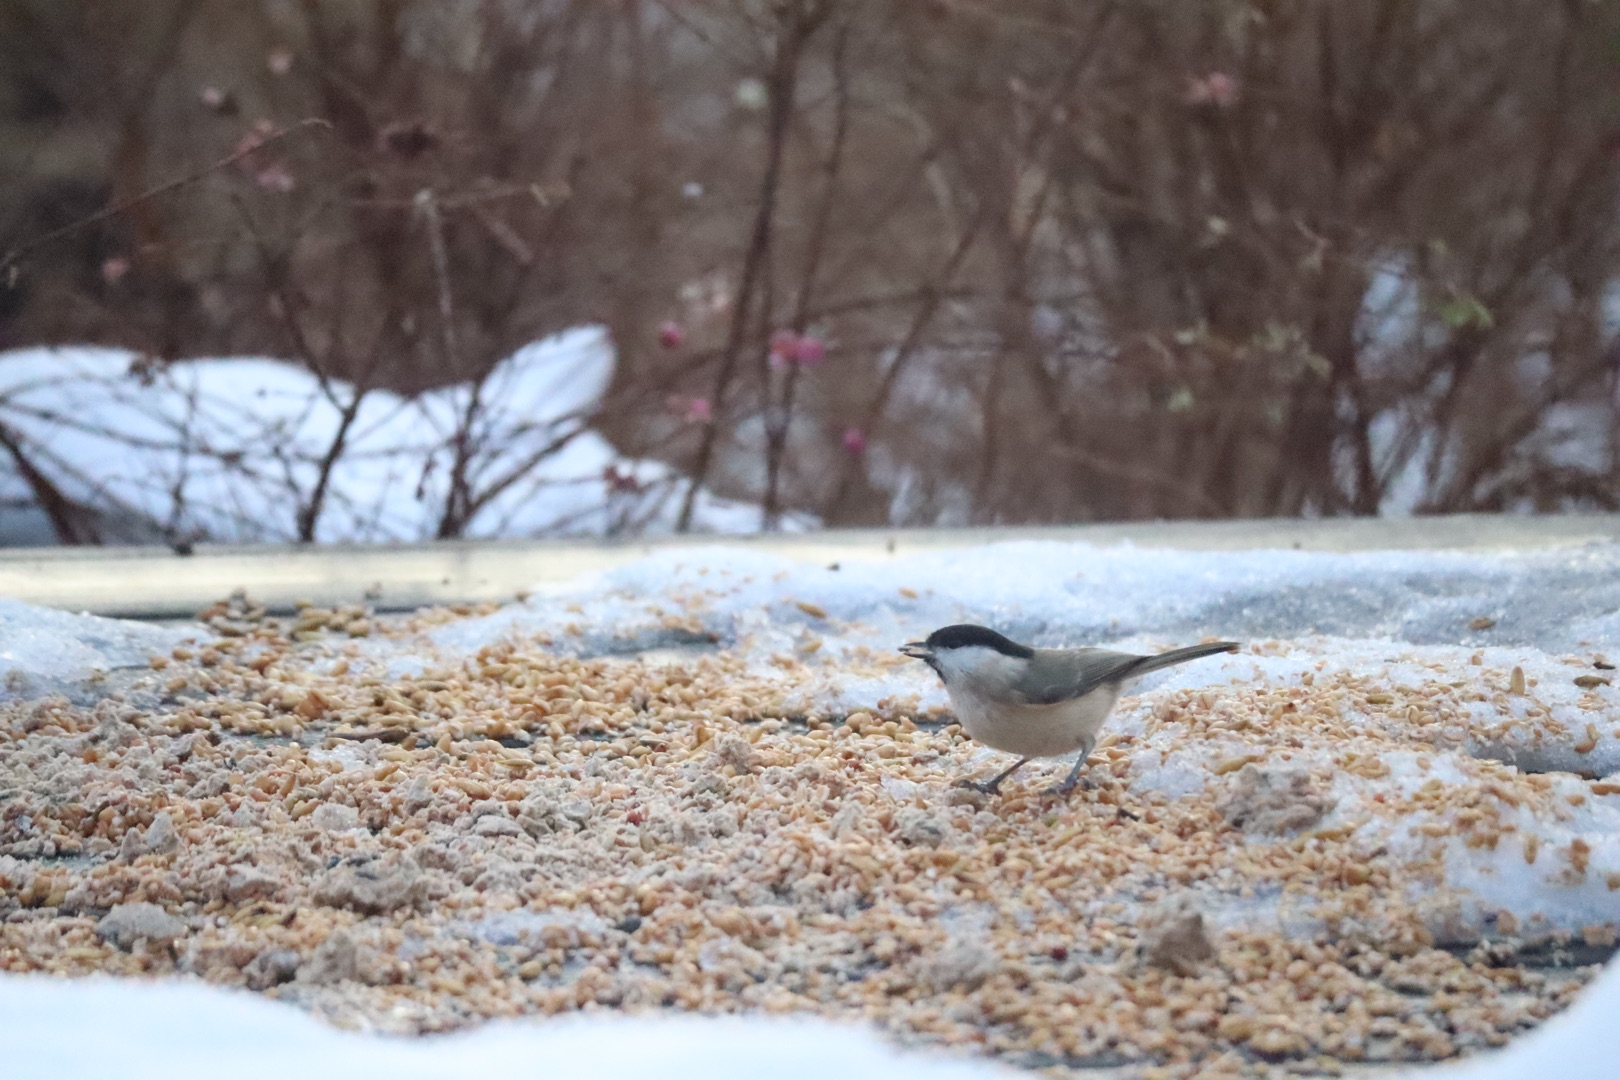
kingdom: Animalia
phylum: Chordata
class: Aves
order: Passeriformes
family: Paridae
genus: Poecile
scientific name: Poecile palustris
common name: Sumpmejse
